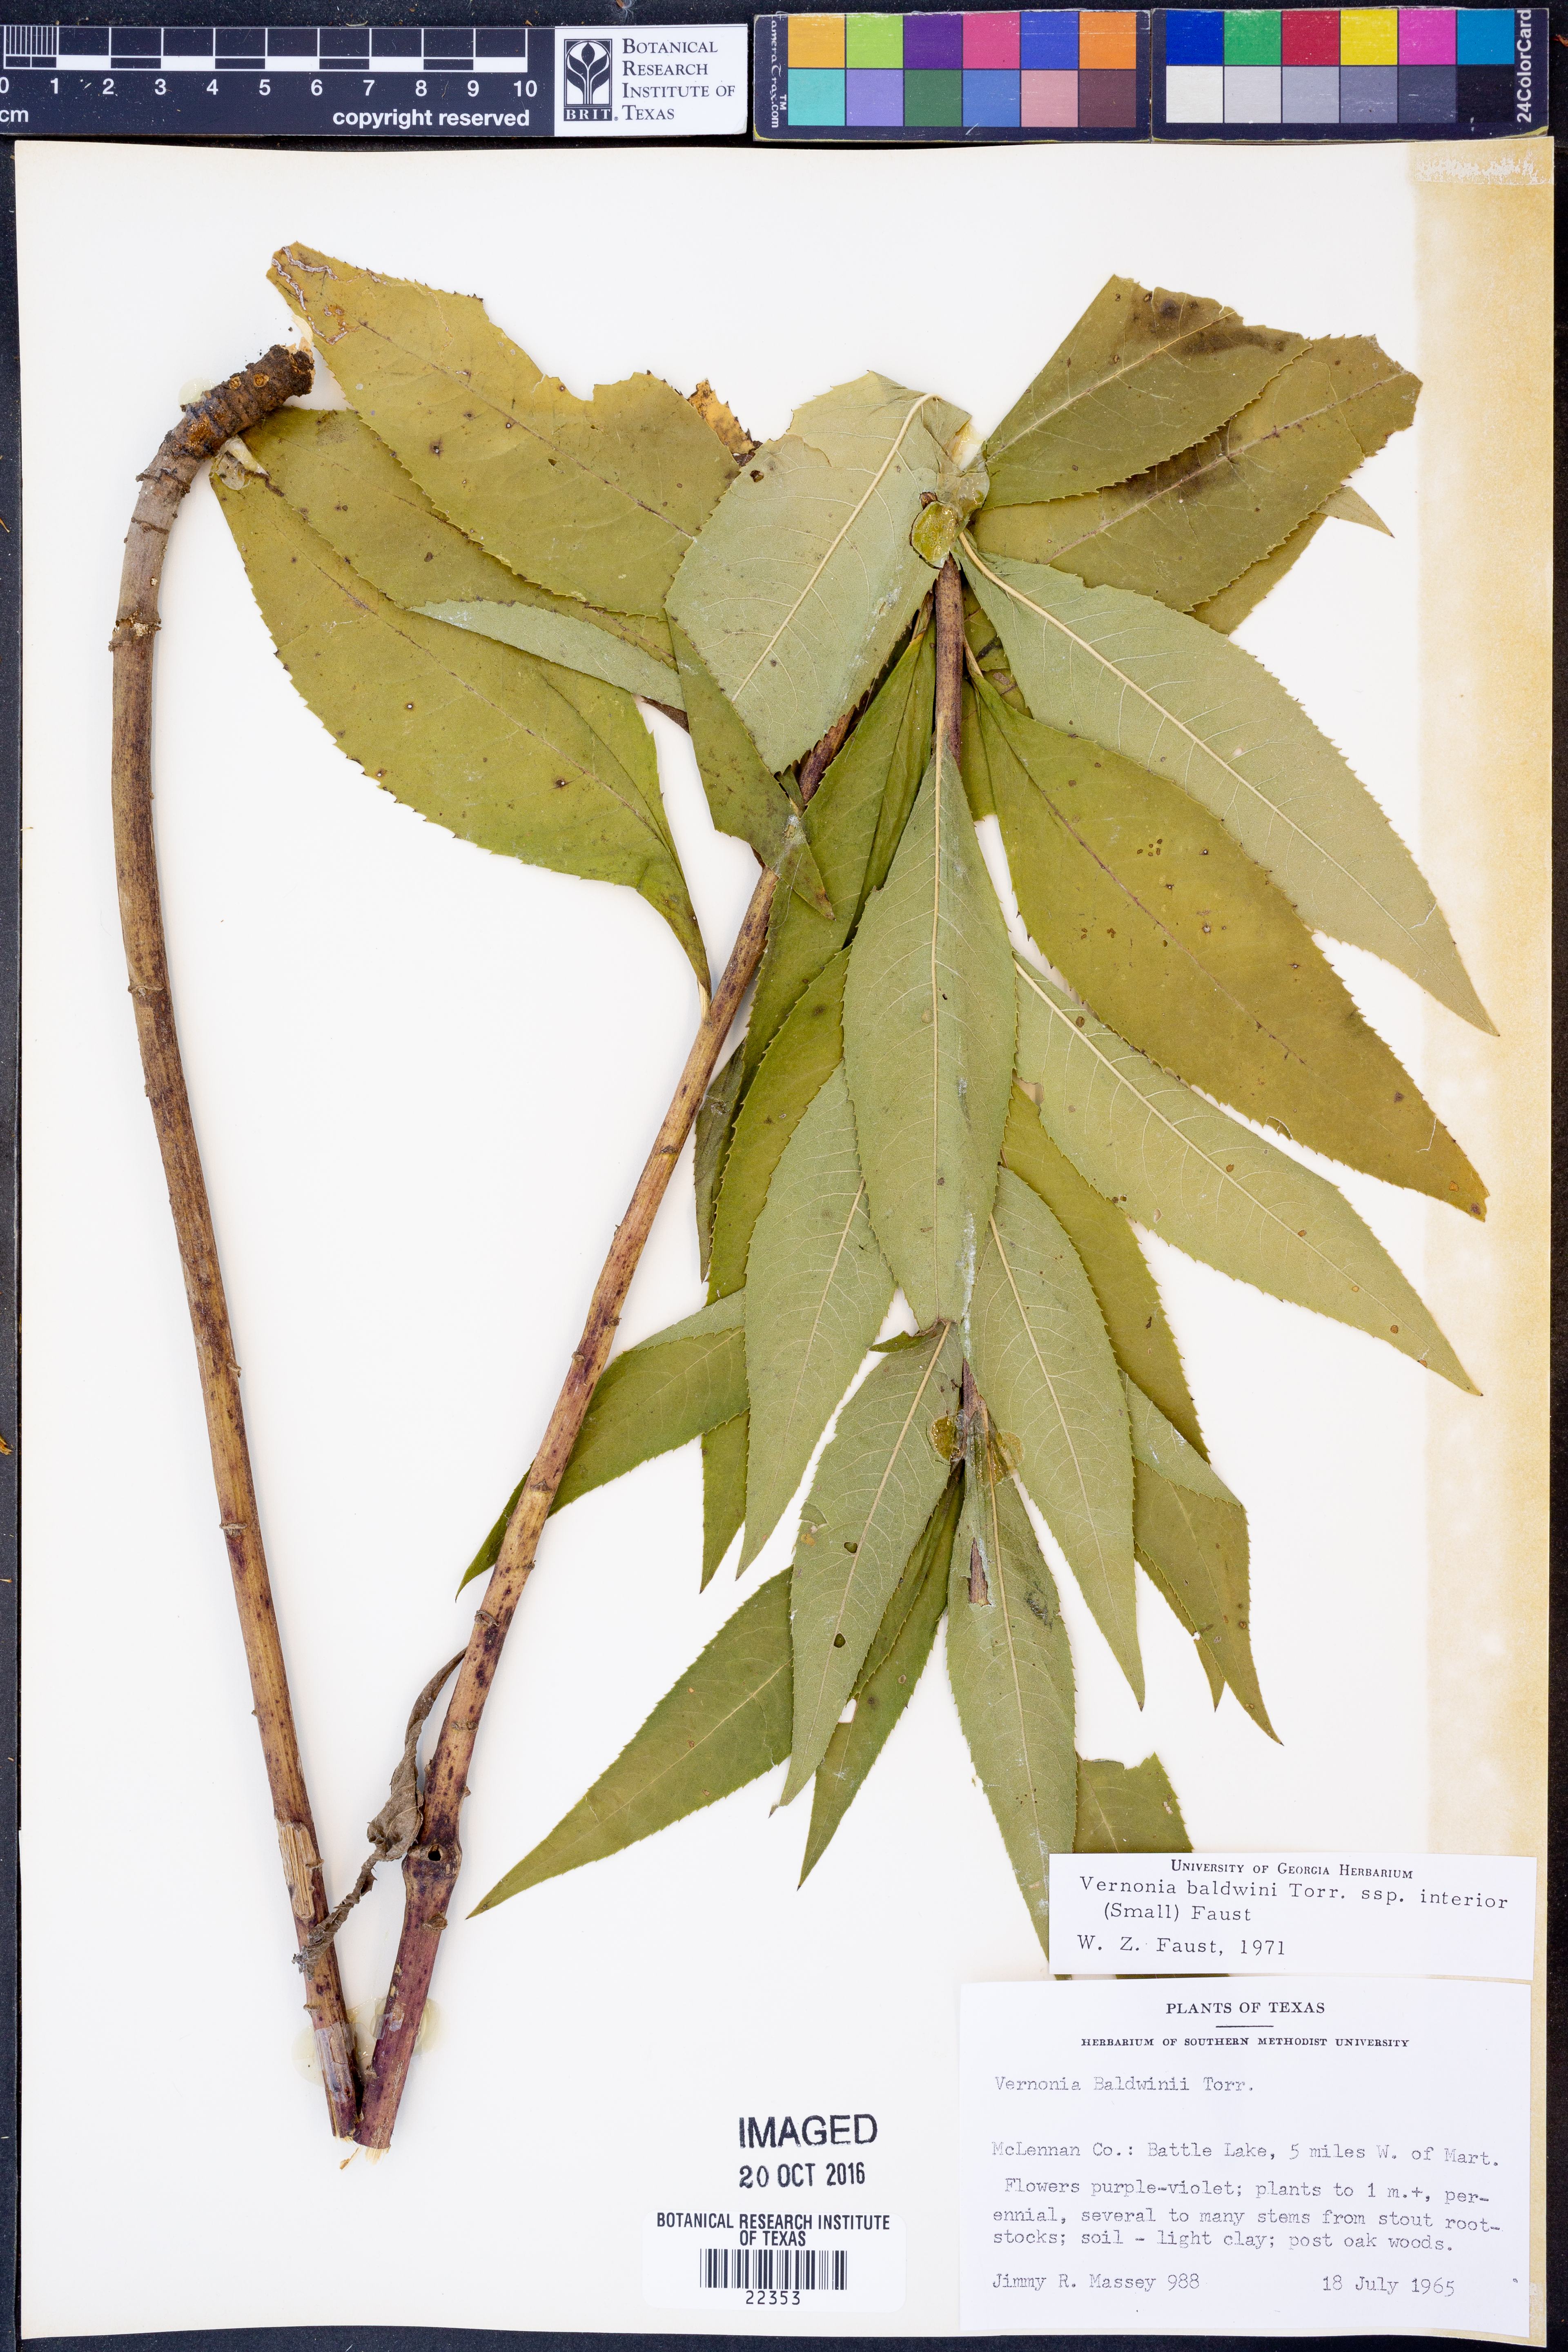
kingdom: Plantae
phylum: Tracheophyta
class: Magnoliopsida
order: Asterales
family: Asteraceae
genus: Vernonia
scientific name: Vernonia baldwinii
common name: Western ironweed
